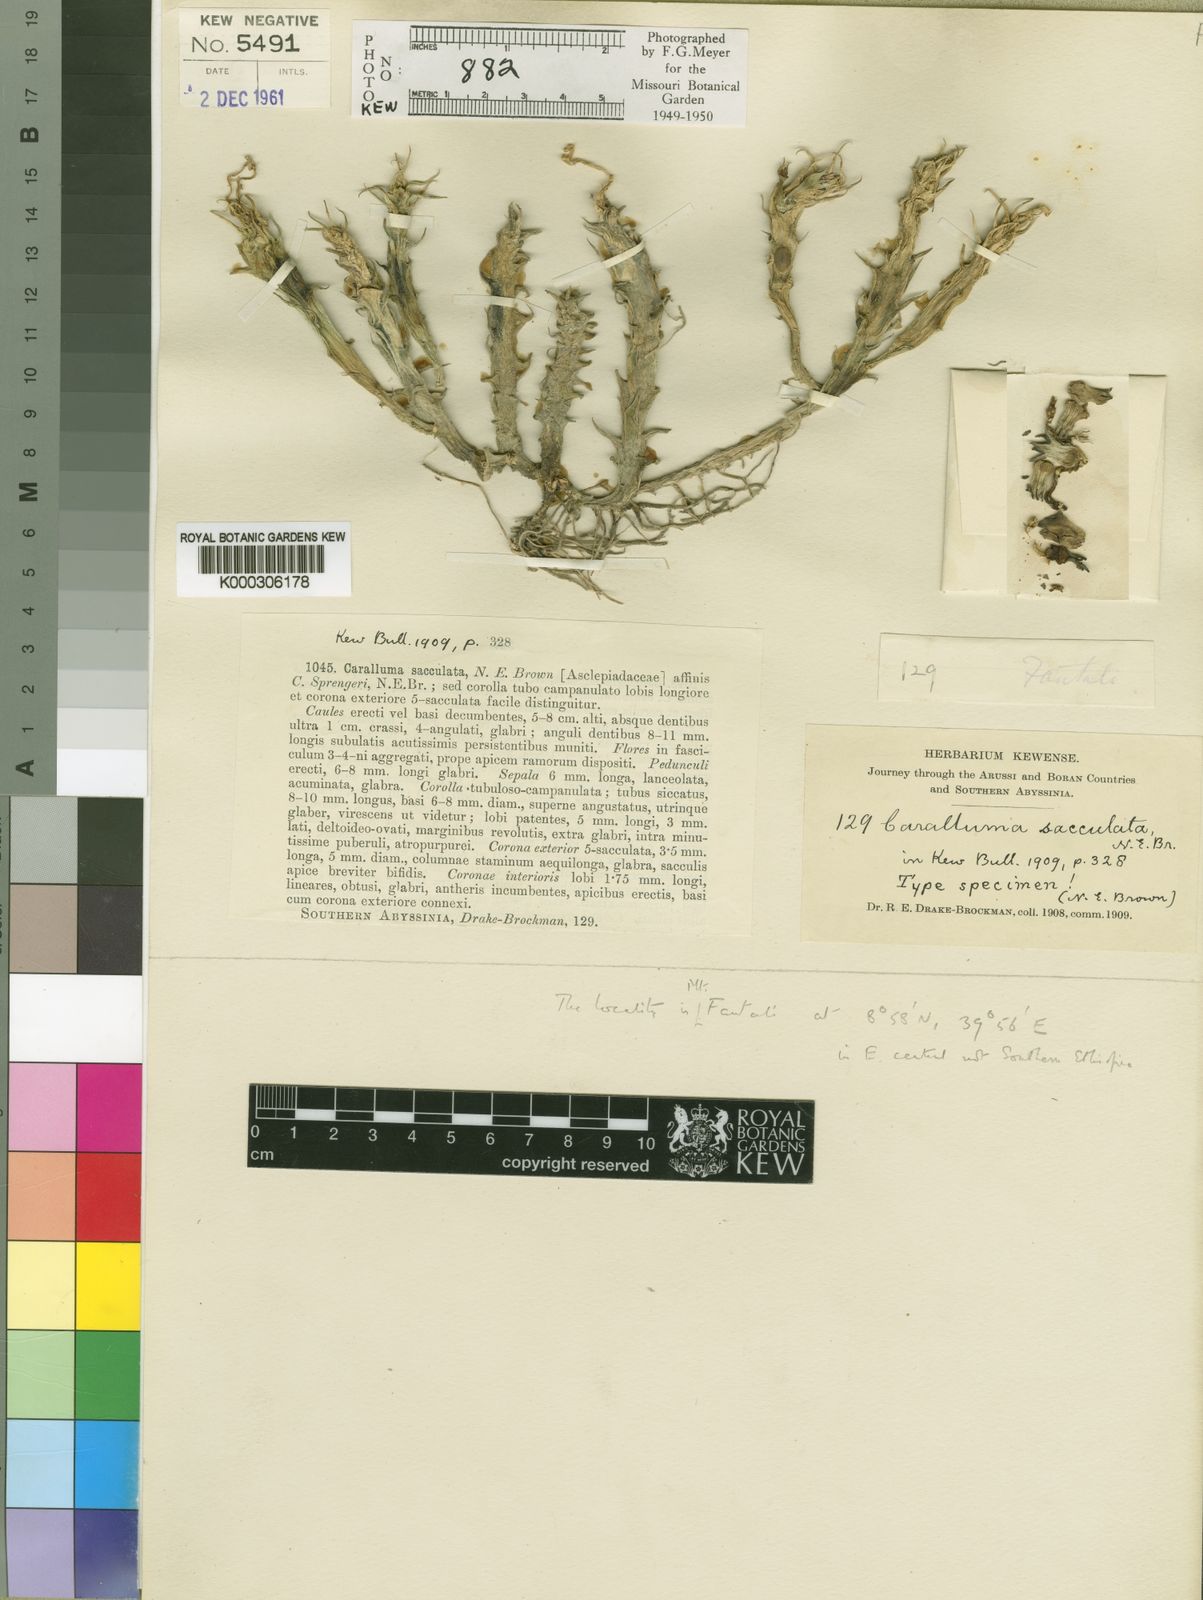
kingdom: Plantae
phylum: Tracheophyta
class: Magnoliopsida
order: Gentianales
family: Apocynaceae
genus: Ceropegia
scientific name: Ceropegia sacculata
